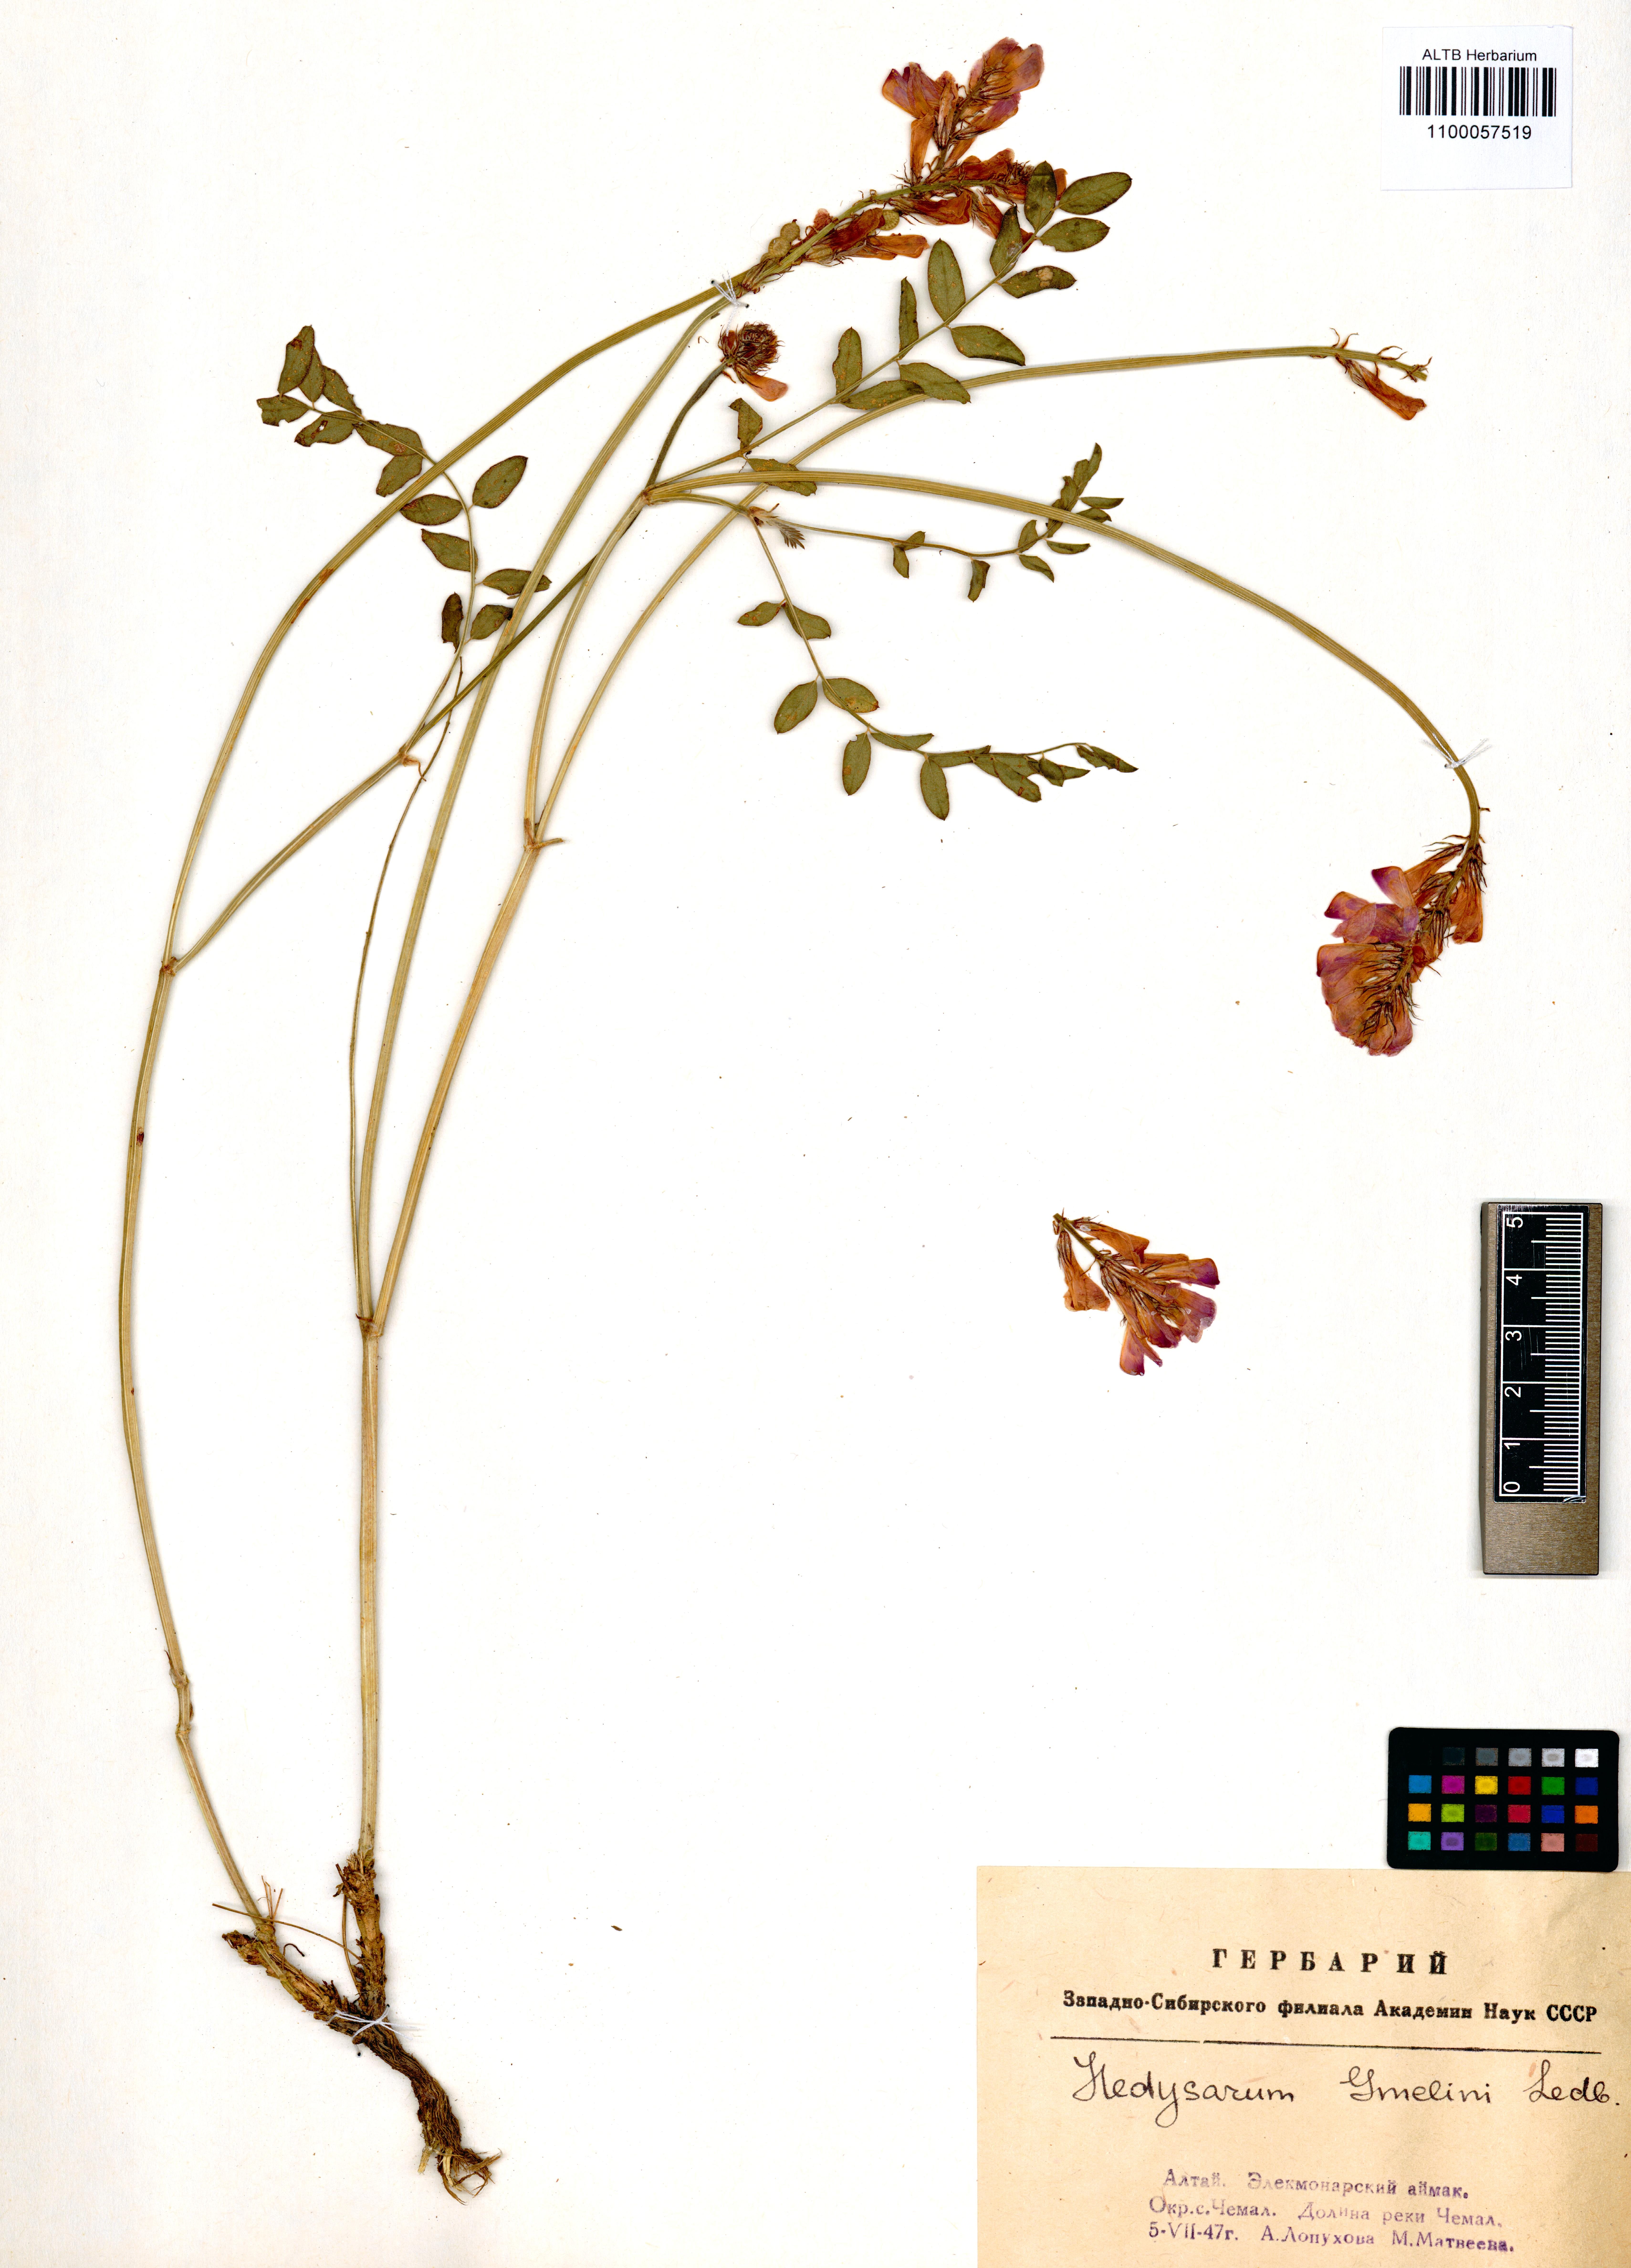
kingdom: Plantae
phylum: Tracheophyta
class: Magnoliopsida
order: Fabales
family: Fabaceae
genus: Hedysarum
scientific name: Hedysarum gmelinii
